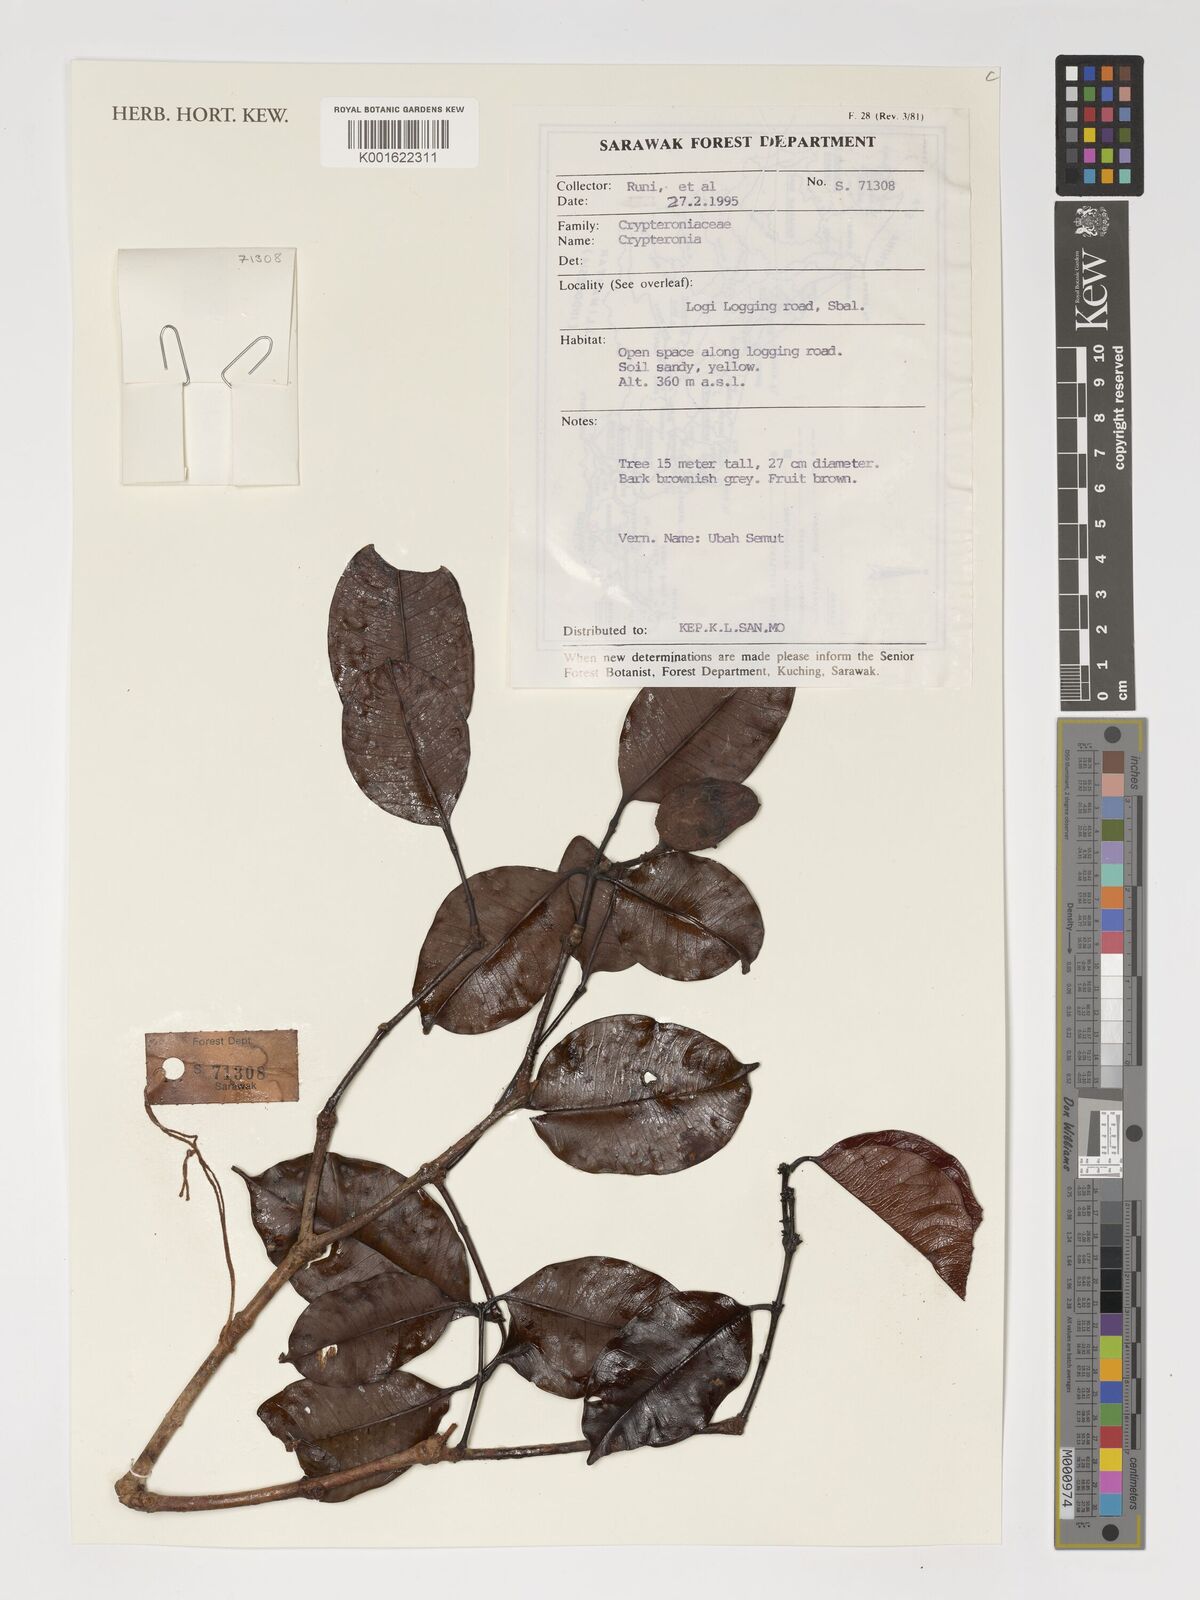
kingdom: Plantae
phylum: Tracheophyta
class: Magnoliopsida
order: Myrtales
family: Crypteroniaceae
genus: Crypteronia
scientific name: Crypteronia
